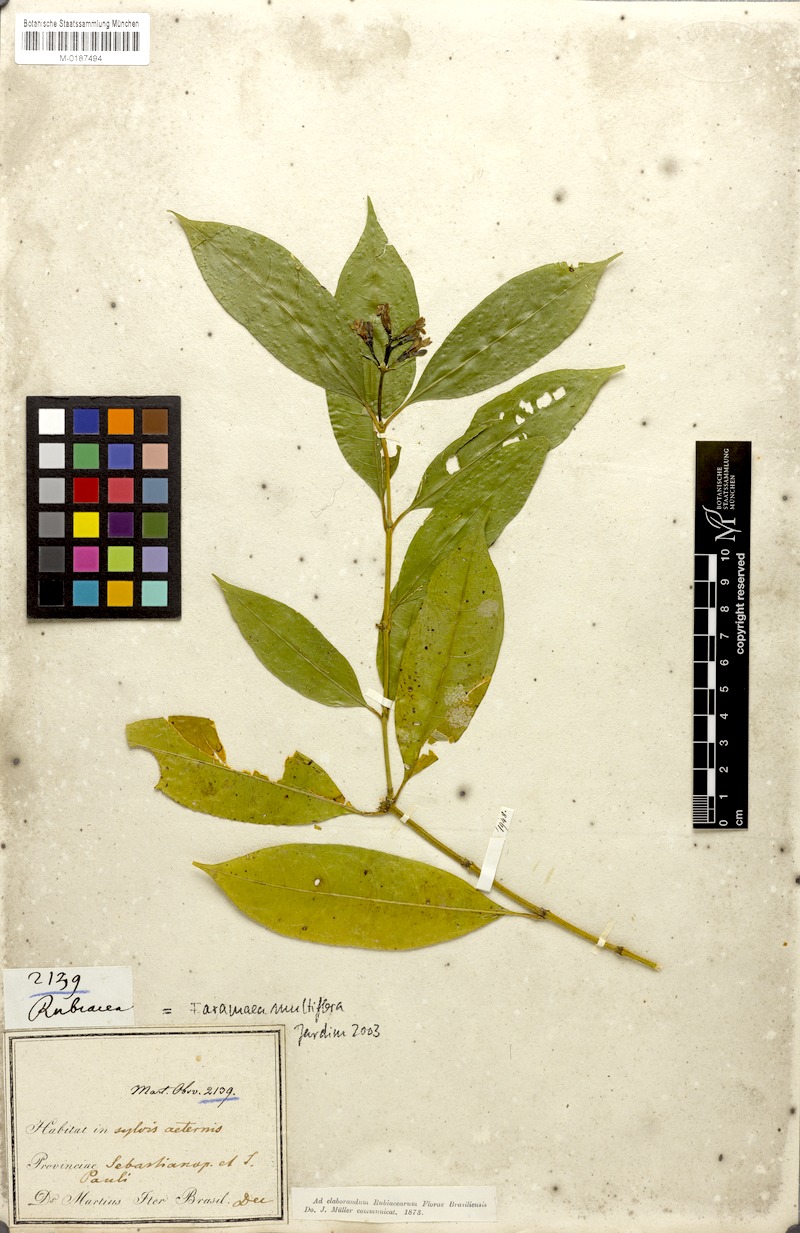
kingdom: Plantae
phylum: Tracheophyta
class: Magnoliopsida
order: Gentianales
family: Rubiaceae
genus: Faramea
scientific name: Faramea multiflora
